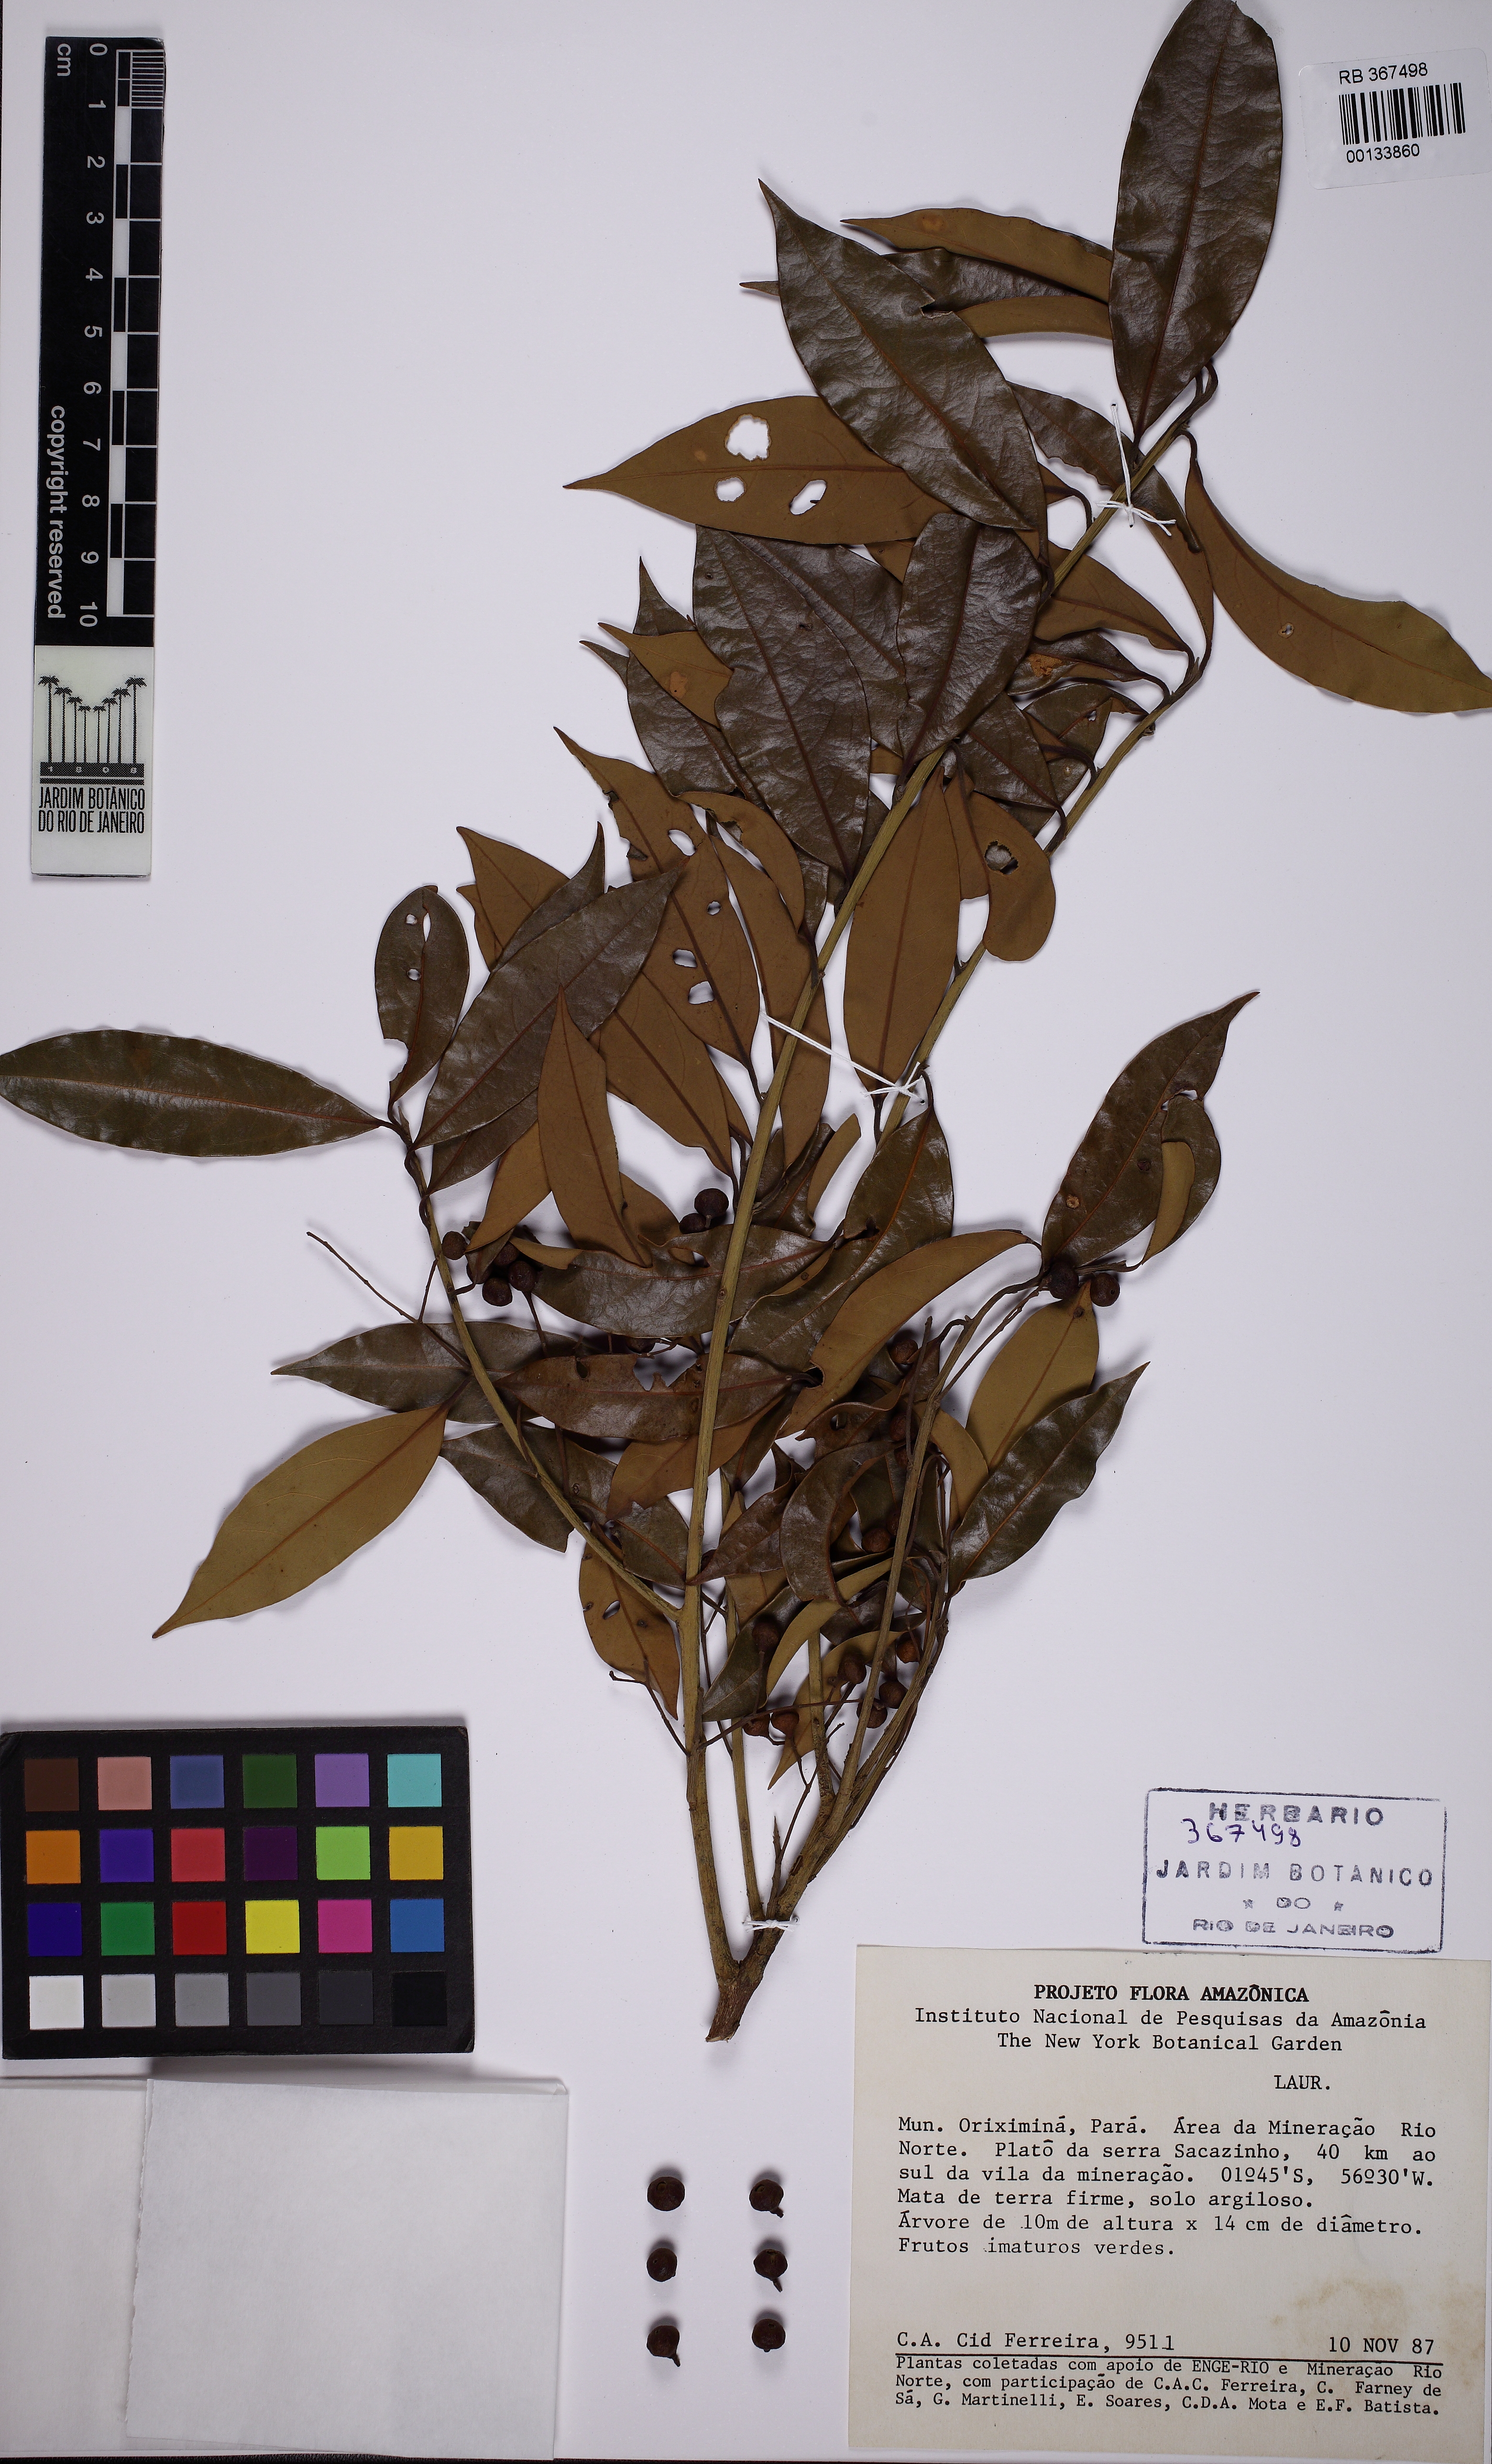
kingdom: Plantae
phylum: Tracheophyta
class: Magnoliopsida
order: Laurales
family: Lauraceae
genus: Licaria
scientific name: Licaria martiniana
